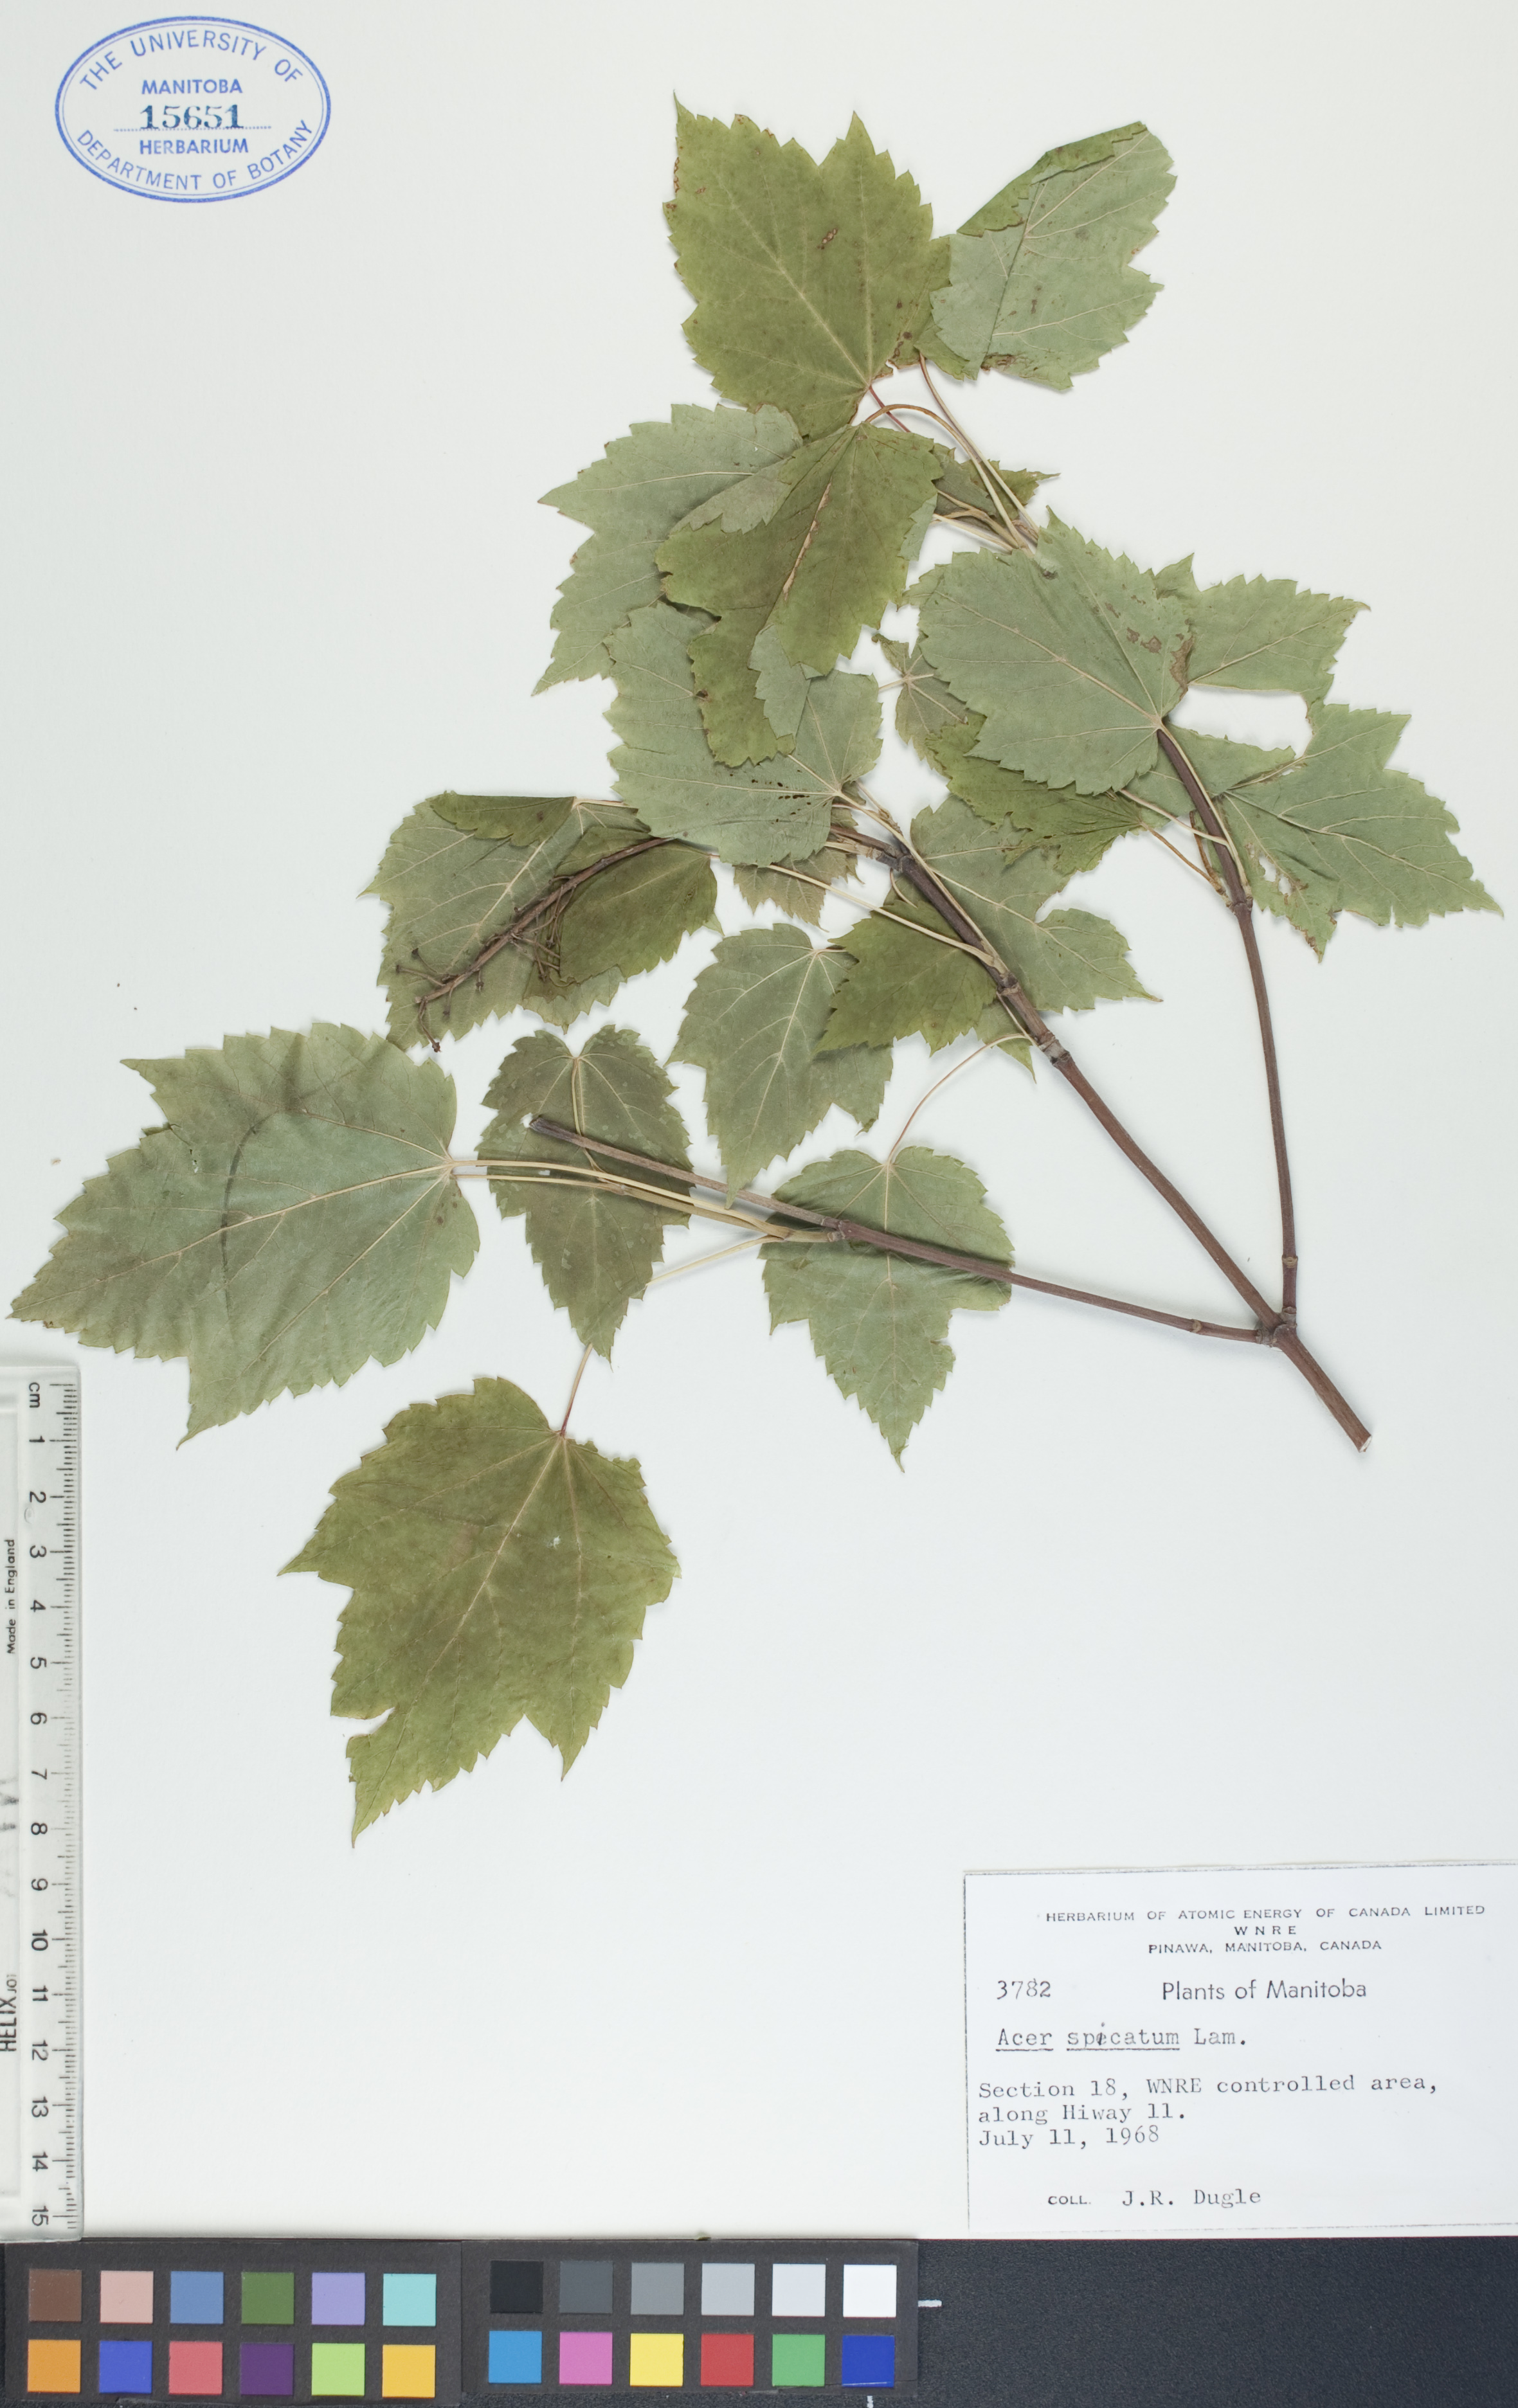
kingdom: Plantae
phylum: Tracheophyta
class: Magnoliopsida
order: Sapindales
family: Sapindaceae
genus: Acer
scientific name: Acer spicatum
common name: Mountain maple
